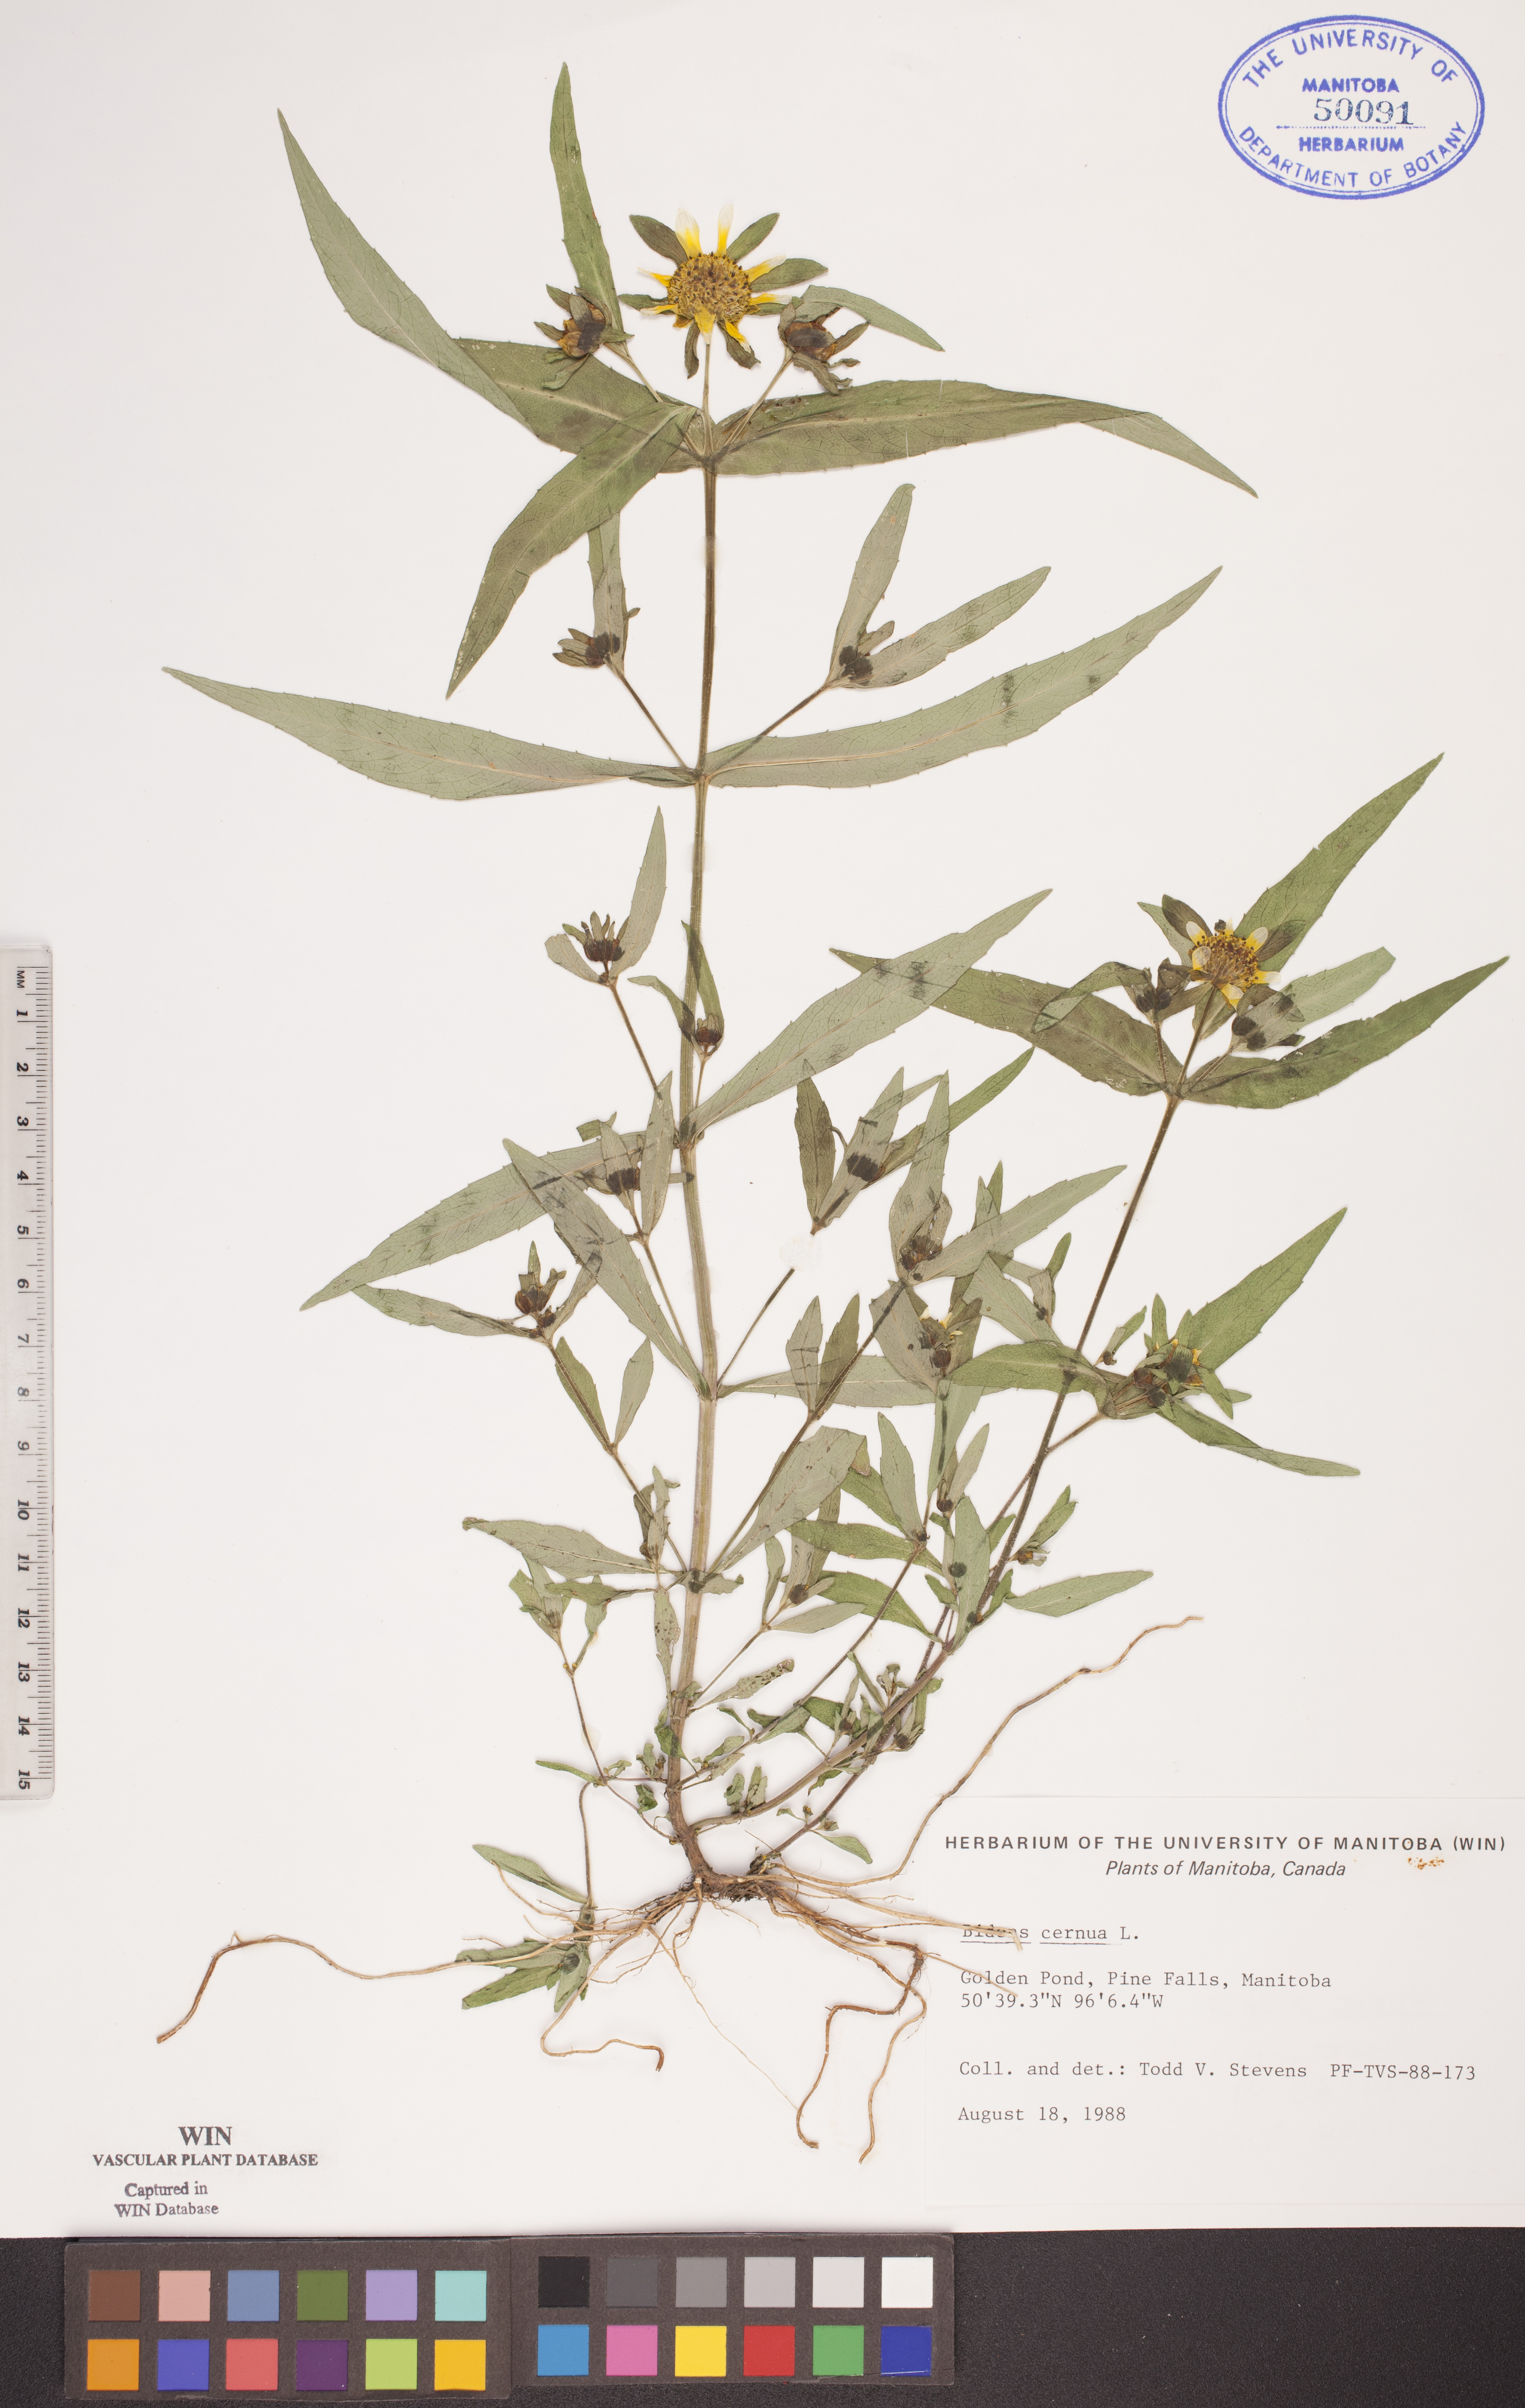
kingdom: Plantae
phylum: Tracheophyta
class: Magnoliopsida
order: Asterales
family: Asteraceae
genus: Bidens
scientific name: Bidens cernua
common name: Nodding bur-marigold
